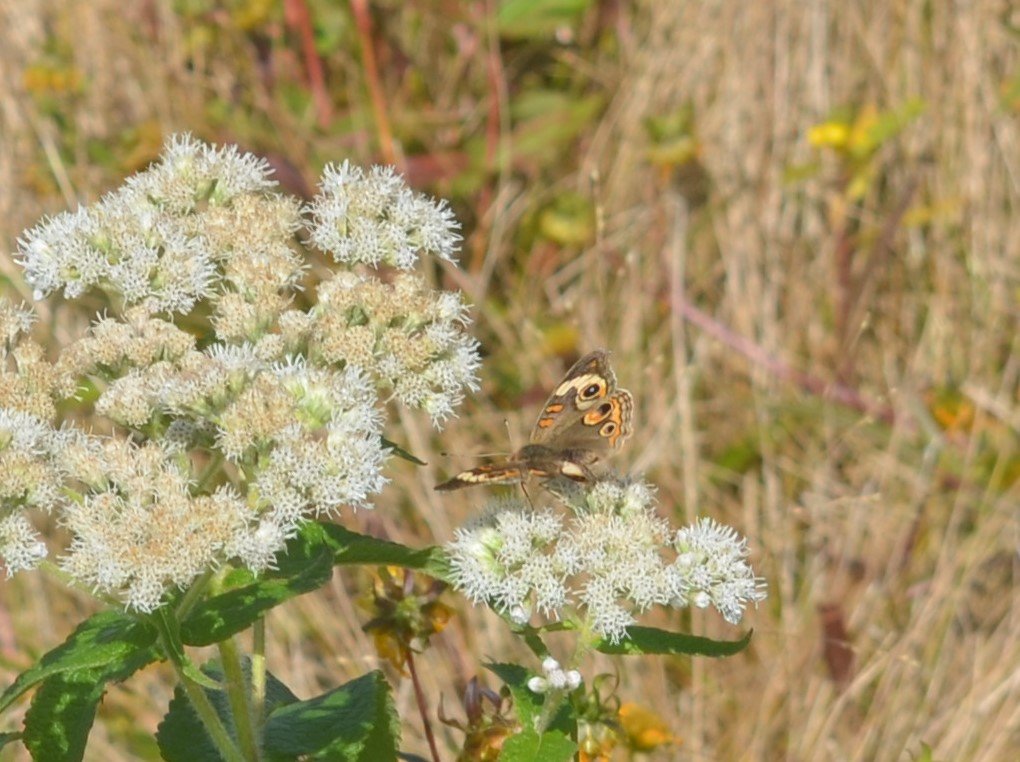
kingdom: Animalia
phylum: Arthropoda
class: Insecta
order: Lepidoptera
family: Nymphalidae
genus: Junonia
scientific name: Junonia coenia
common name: Common Buckeye
